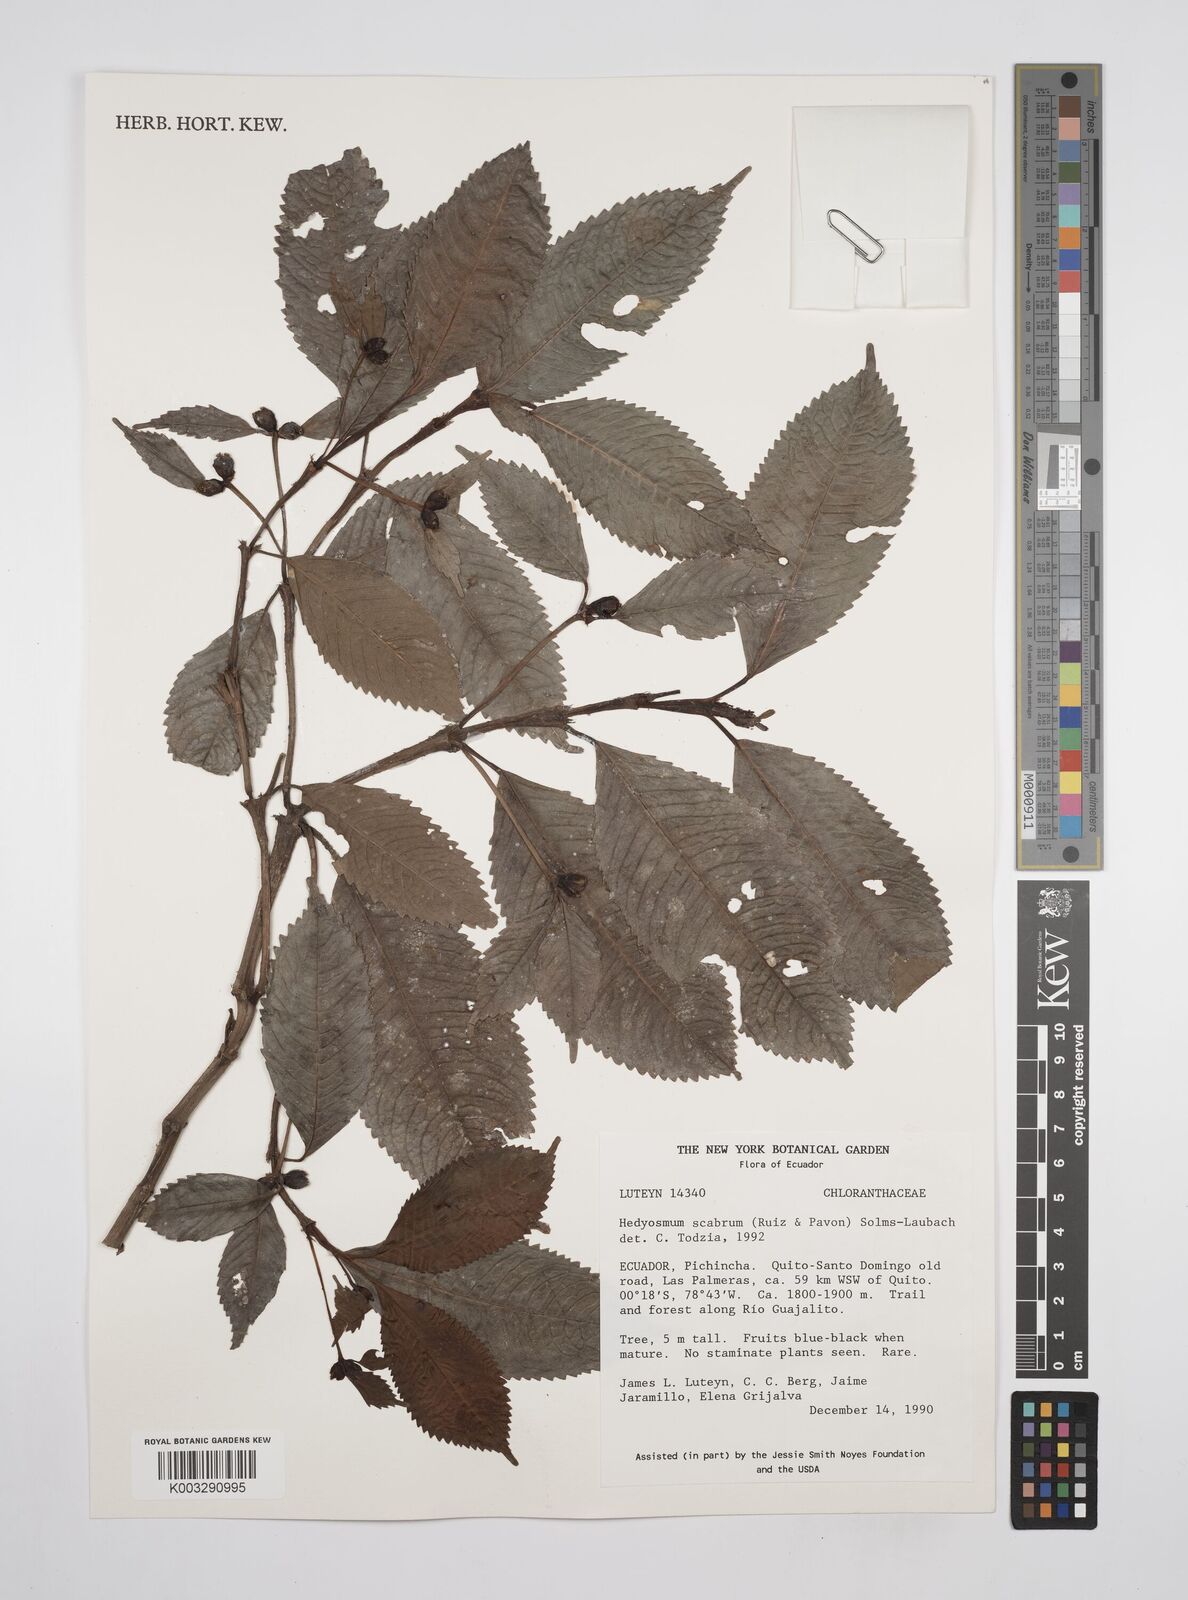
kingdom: Plantae
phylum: Tracheophyta
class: Magnoliopsida
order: Chloranthales
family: Chloranthaceae
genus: Hedyosmum
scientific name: Hedyosmum scabrum
